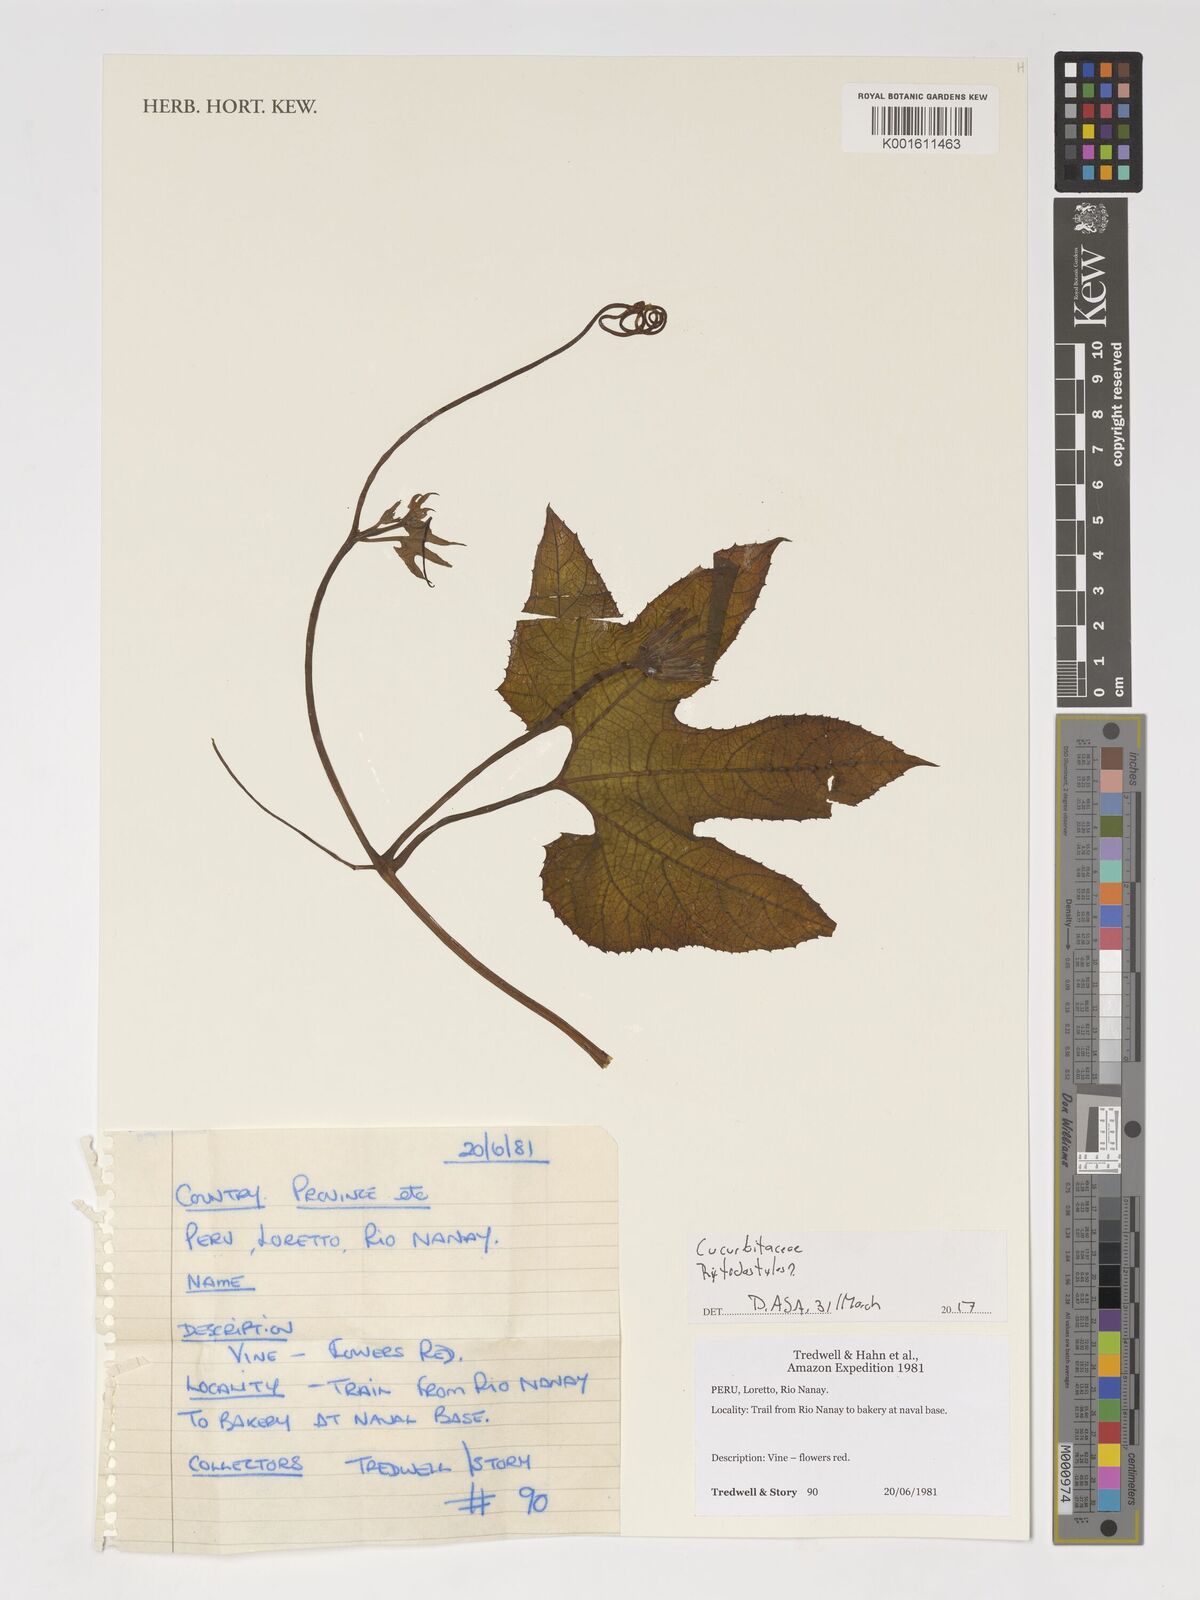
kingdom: Plantae
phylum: Tracheophyta
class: Magnoliopsida
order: Cucurbitales
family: Cucurbitaceae
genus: Cyclanthera
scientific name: Cyclanthera
